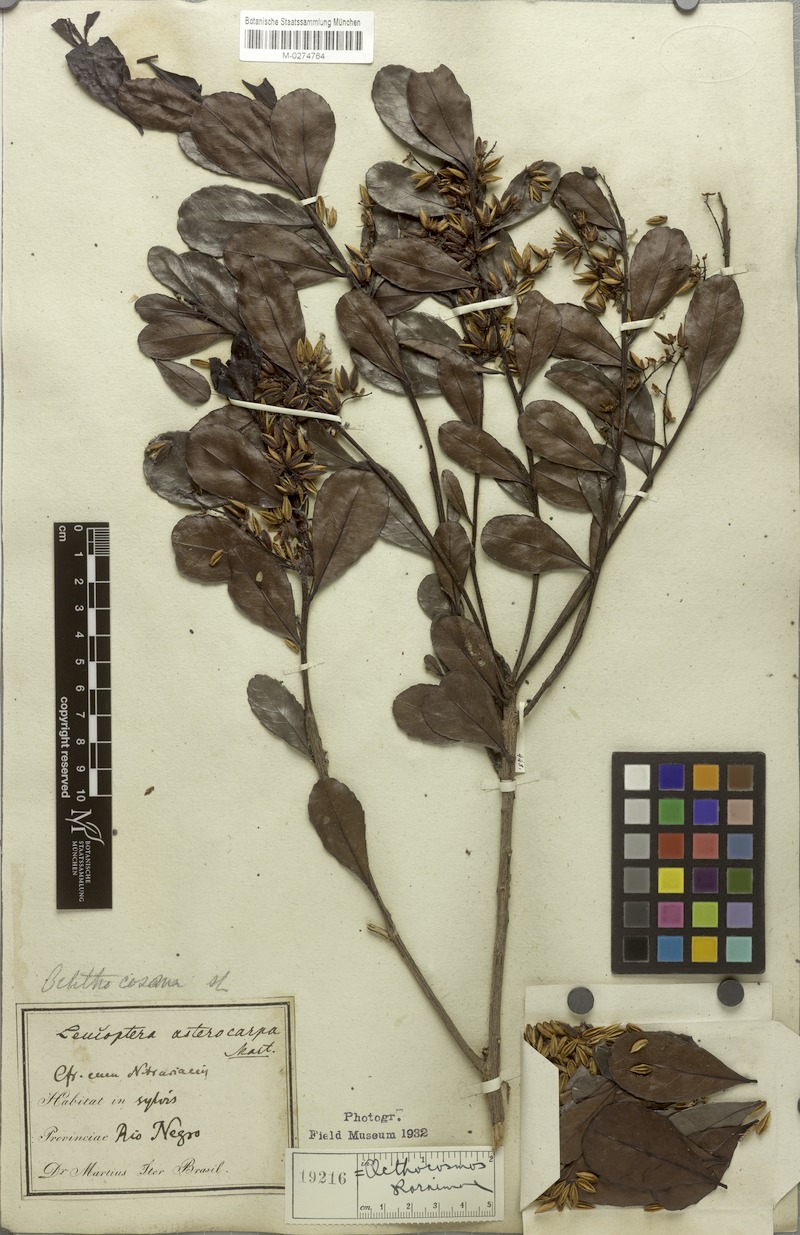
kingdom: Plantae
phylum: Tracheophyta
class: Magnoliopsida
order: Malpighiales
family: Ixonanthaceae
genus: Ochthocosmus
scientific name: Ochthocosmus roraimae
